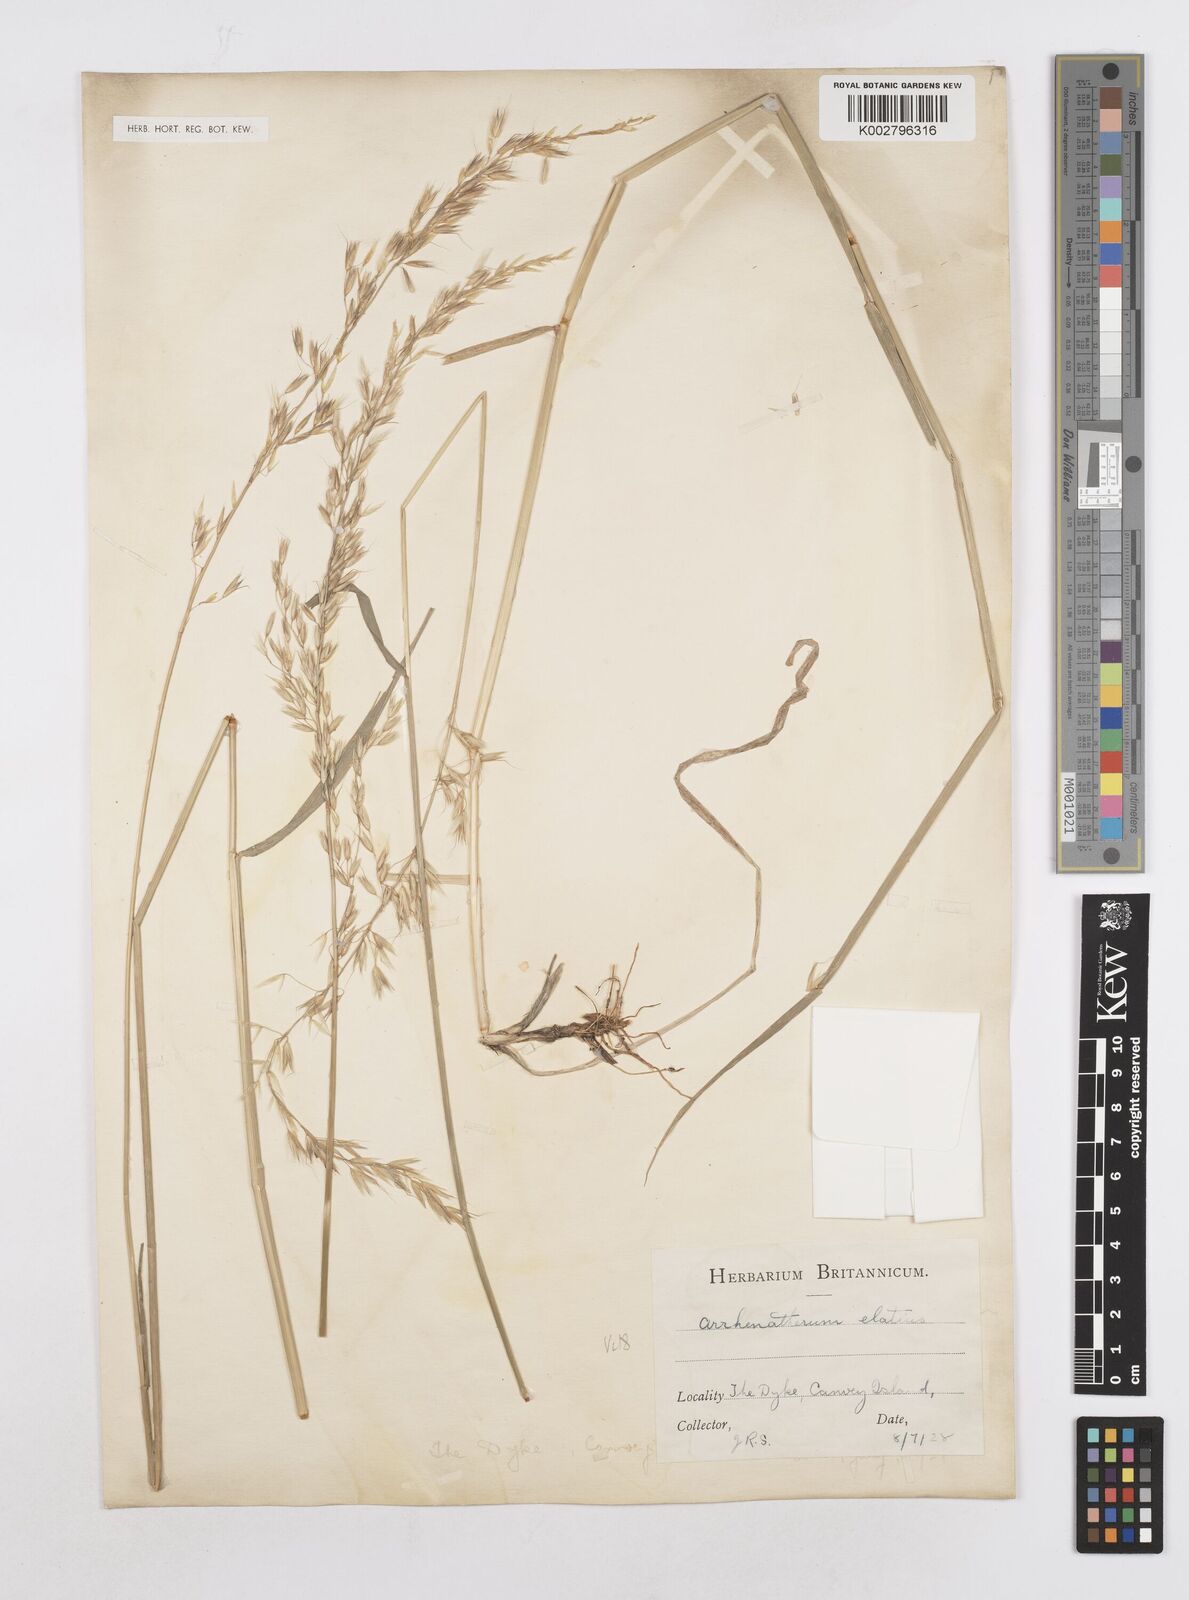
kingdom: Plantae
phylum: Tracheophyta
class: Liliopsida
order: Poales
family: Poaceae
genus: Arrhenatherum
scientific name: Arrhenatherum elatius
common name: Tall oatgrass
